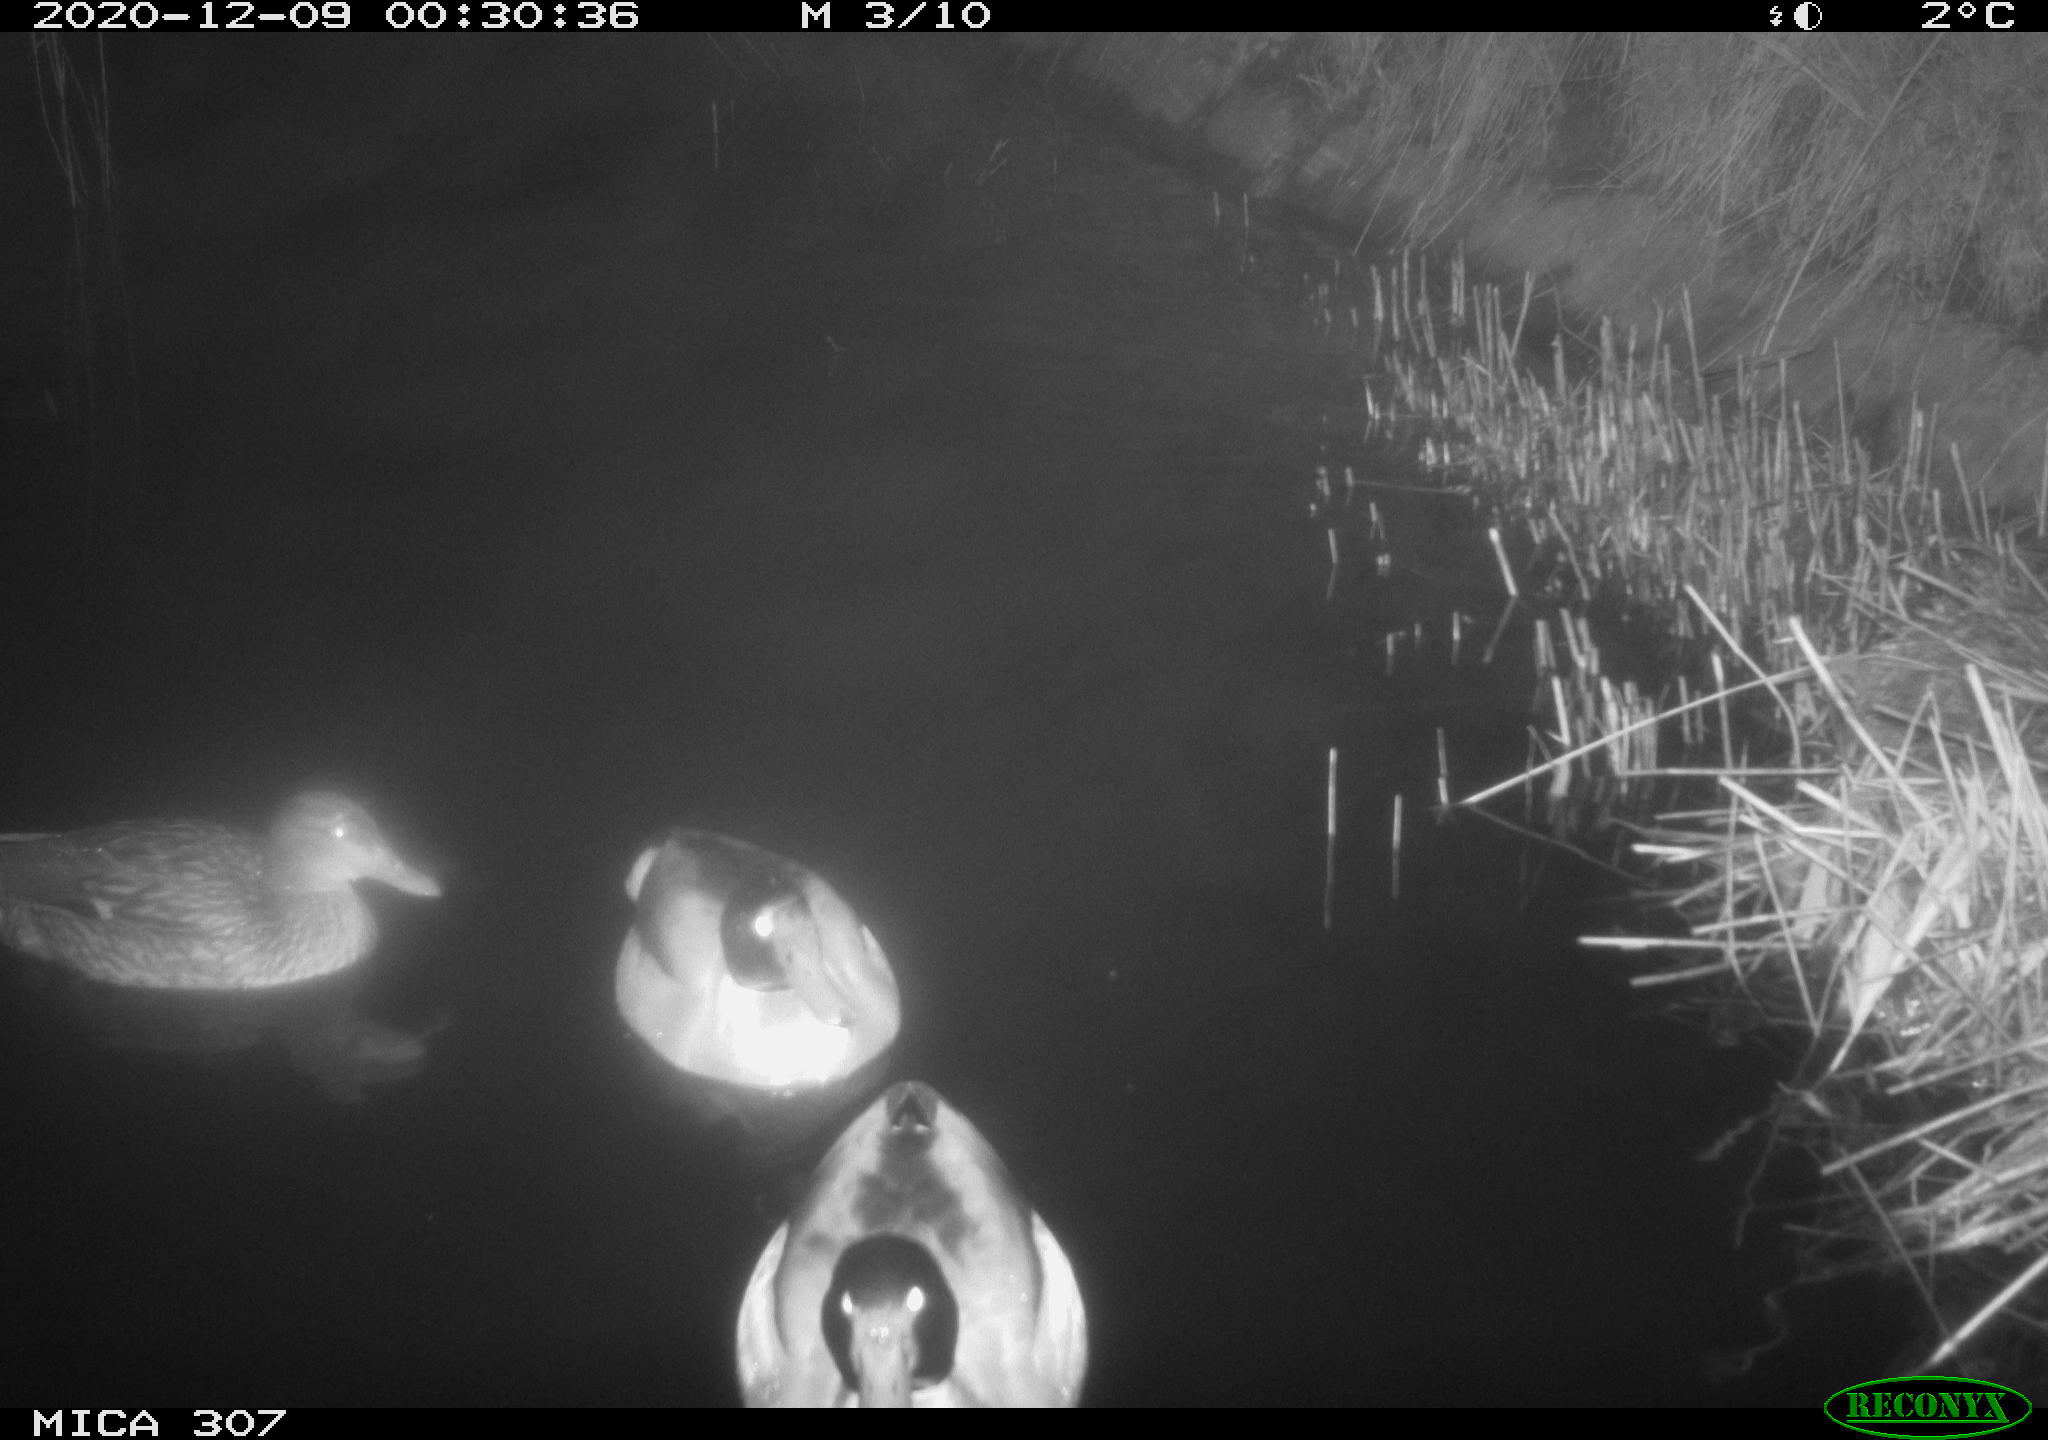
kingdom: Animalia
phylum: Chordata
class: Aves
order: Anseriformes
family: Anatidae
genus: Anas
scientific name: Anas platyrhynchos
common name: Mallard
